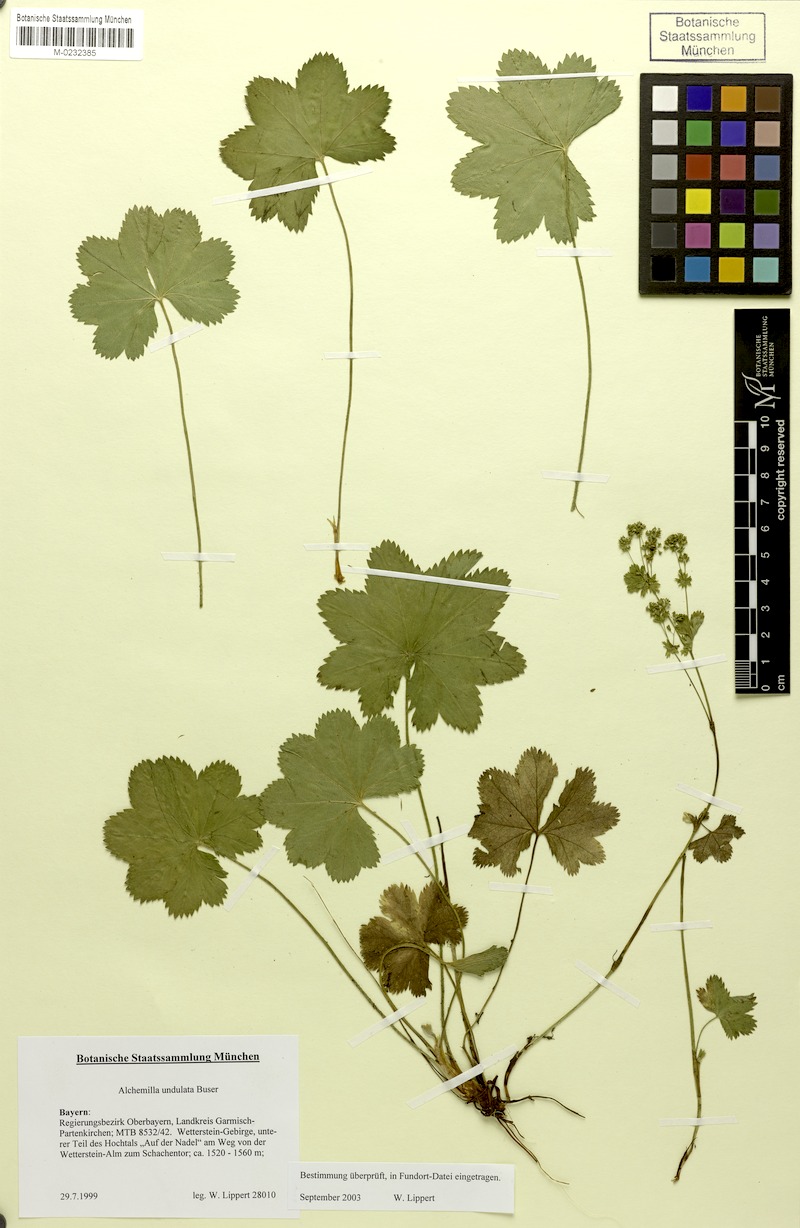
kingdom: Plantae
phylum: Tracheophyta
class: Magnoliopsida
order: Rosales
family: Rosaceae
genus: Alchemilla
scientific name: Alchemilla undulata
